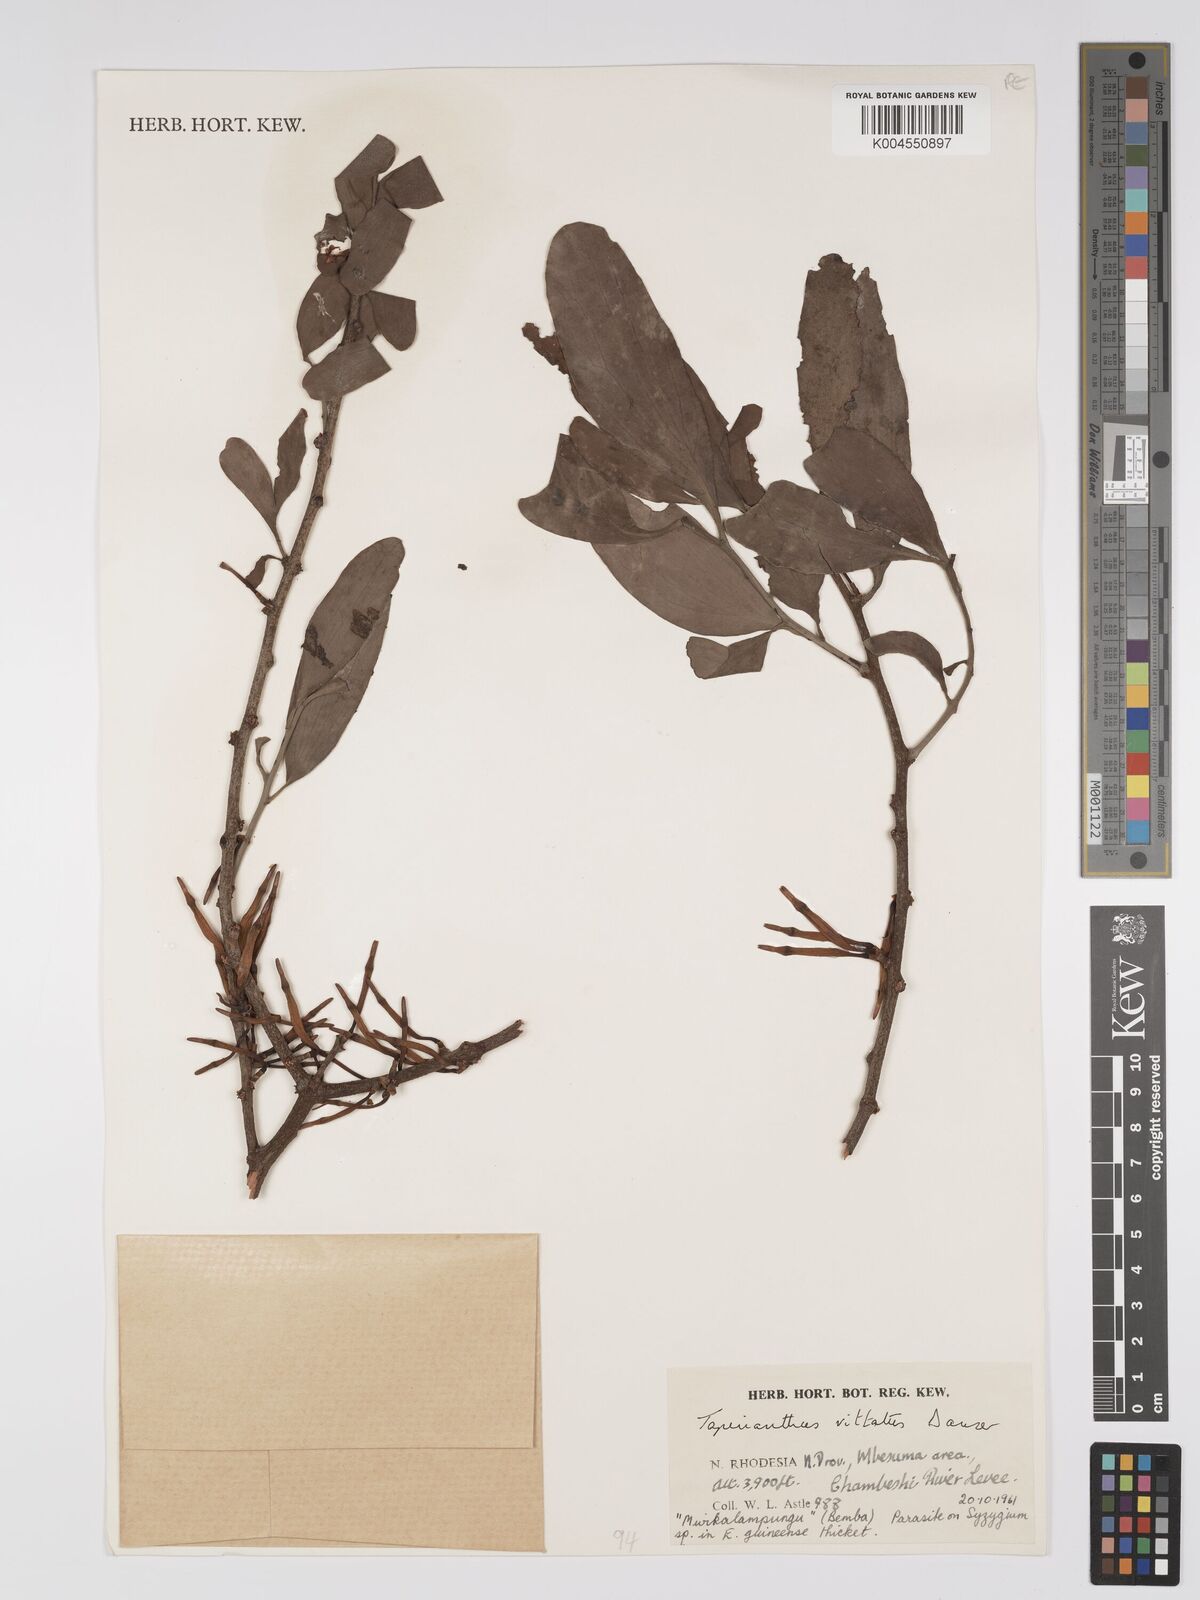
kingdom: Plantae
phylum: Tracheophyta
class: Magnoliopsida
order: Santalales
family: Loranthaceae
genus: Agelanthus
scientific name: Agelanthus zizyphifolius
